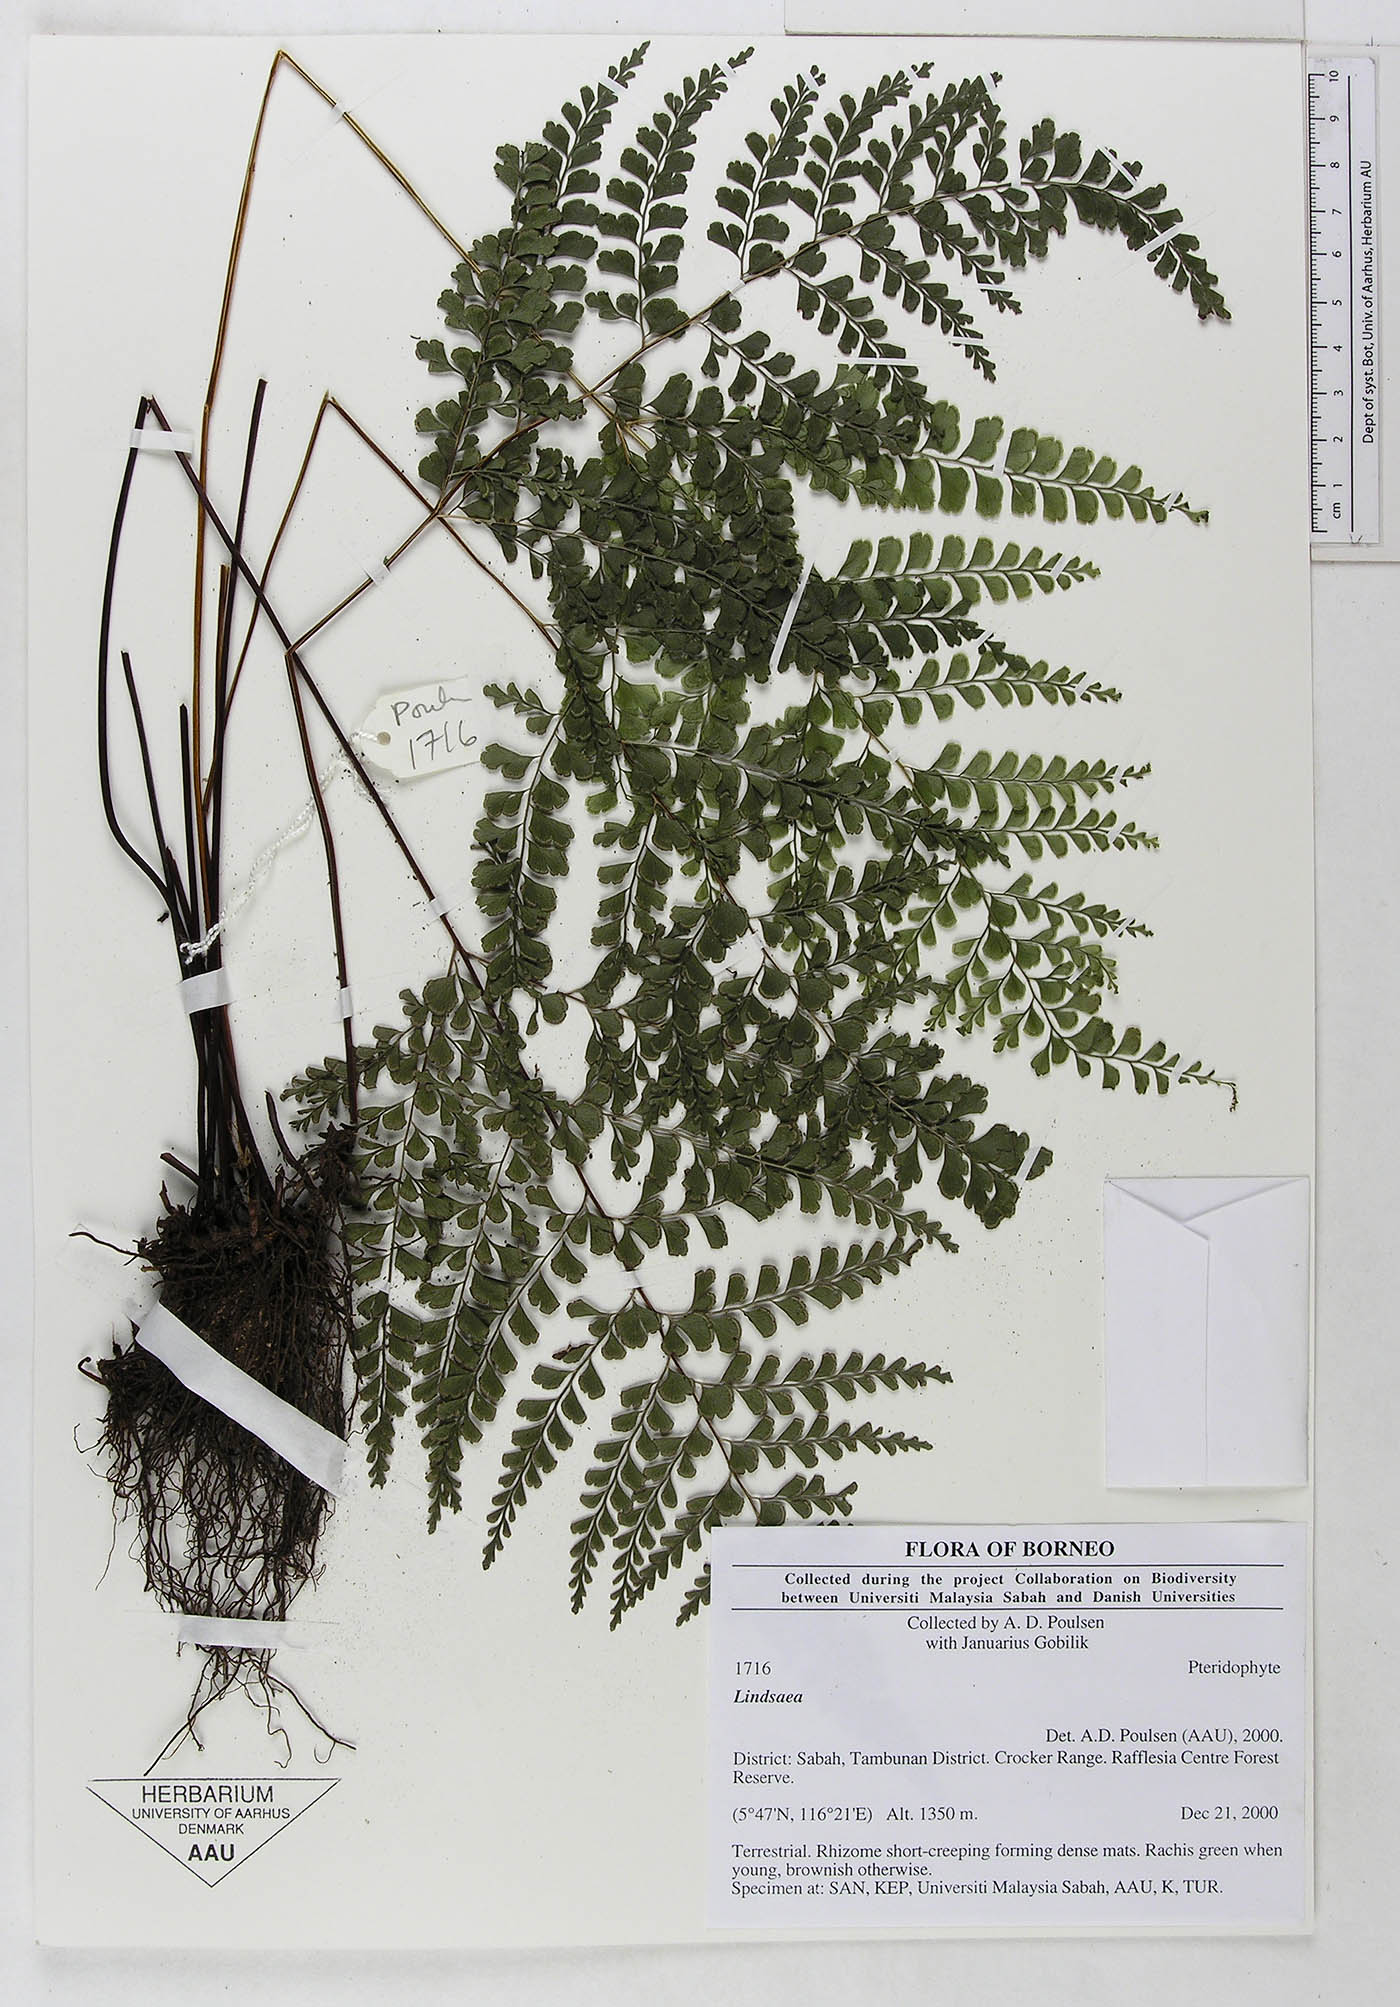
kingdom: Plantae
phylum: Tracheophyta
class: Polypodiopsida
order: Polypodiales
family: Dennstaedtiaceae
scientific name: Dennstaedtiaceae
